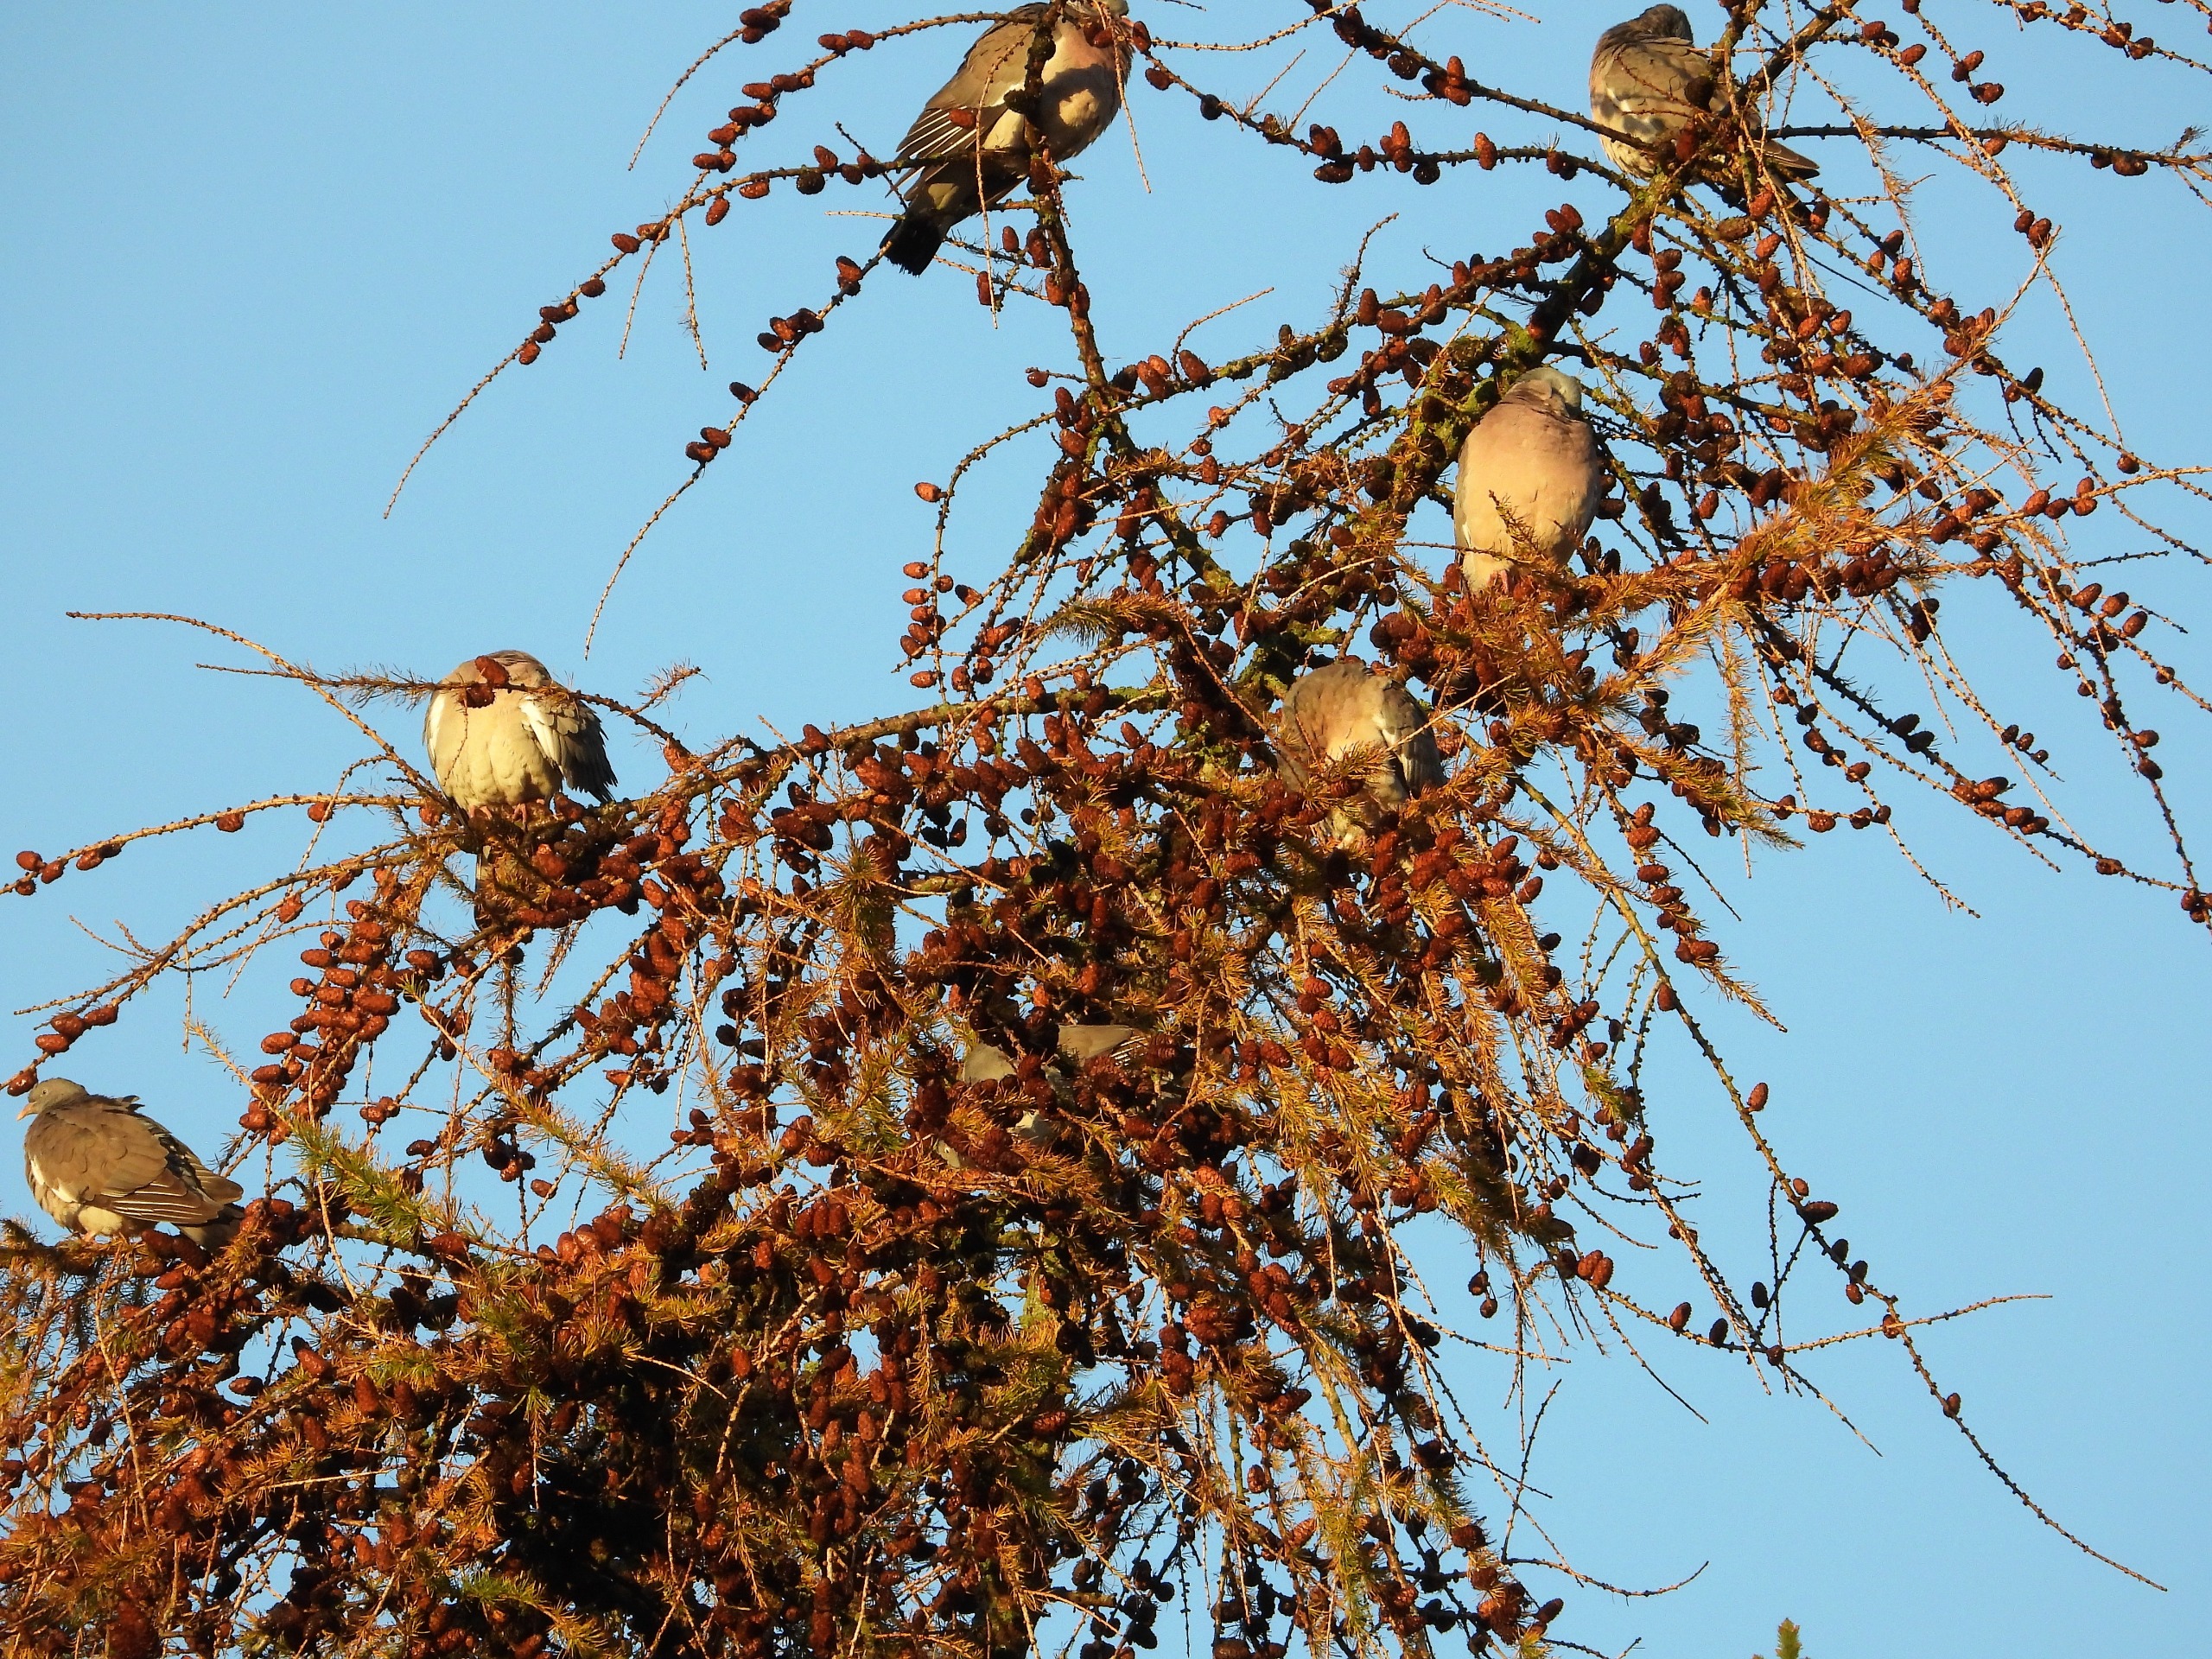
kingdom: Animalia
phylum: Chordata
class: Aves
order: Columbiformes
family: Columbidae
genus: Columba
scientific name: Columba palumbus
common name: Ringdue
